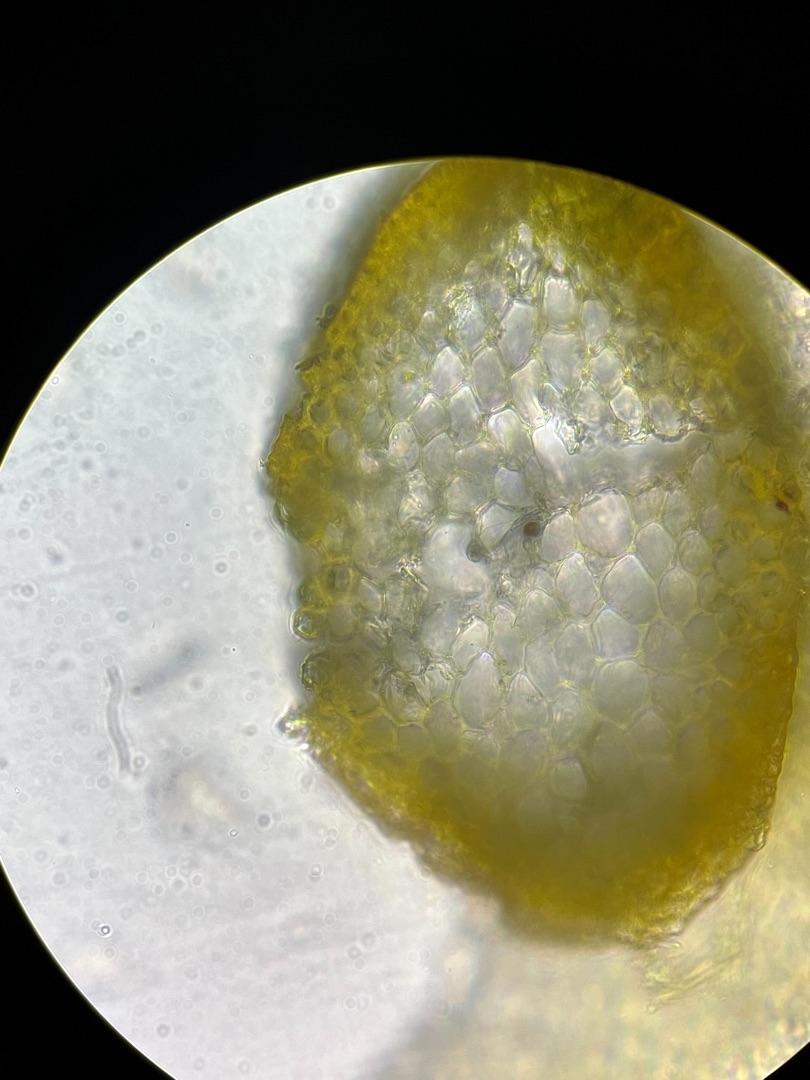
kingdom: Plantae
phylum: Bryophyta
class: Bryopsida
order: Hypnales
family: Amblystegiaceae
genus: Drepanocladus
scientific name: Drepanocladus aduncus
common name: Kær-seglmos
